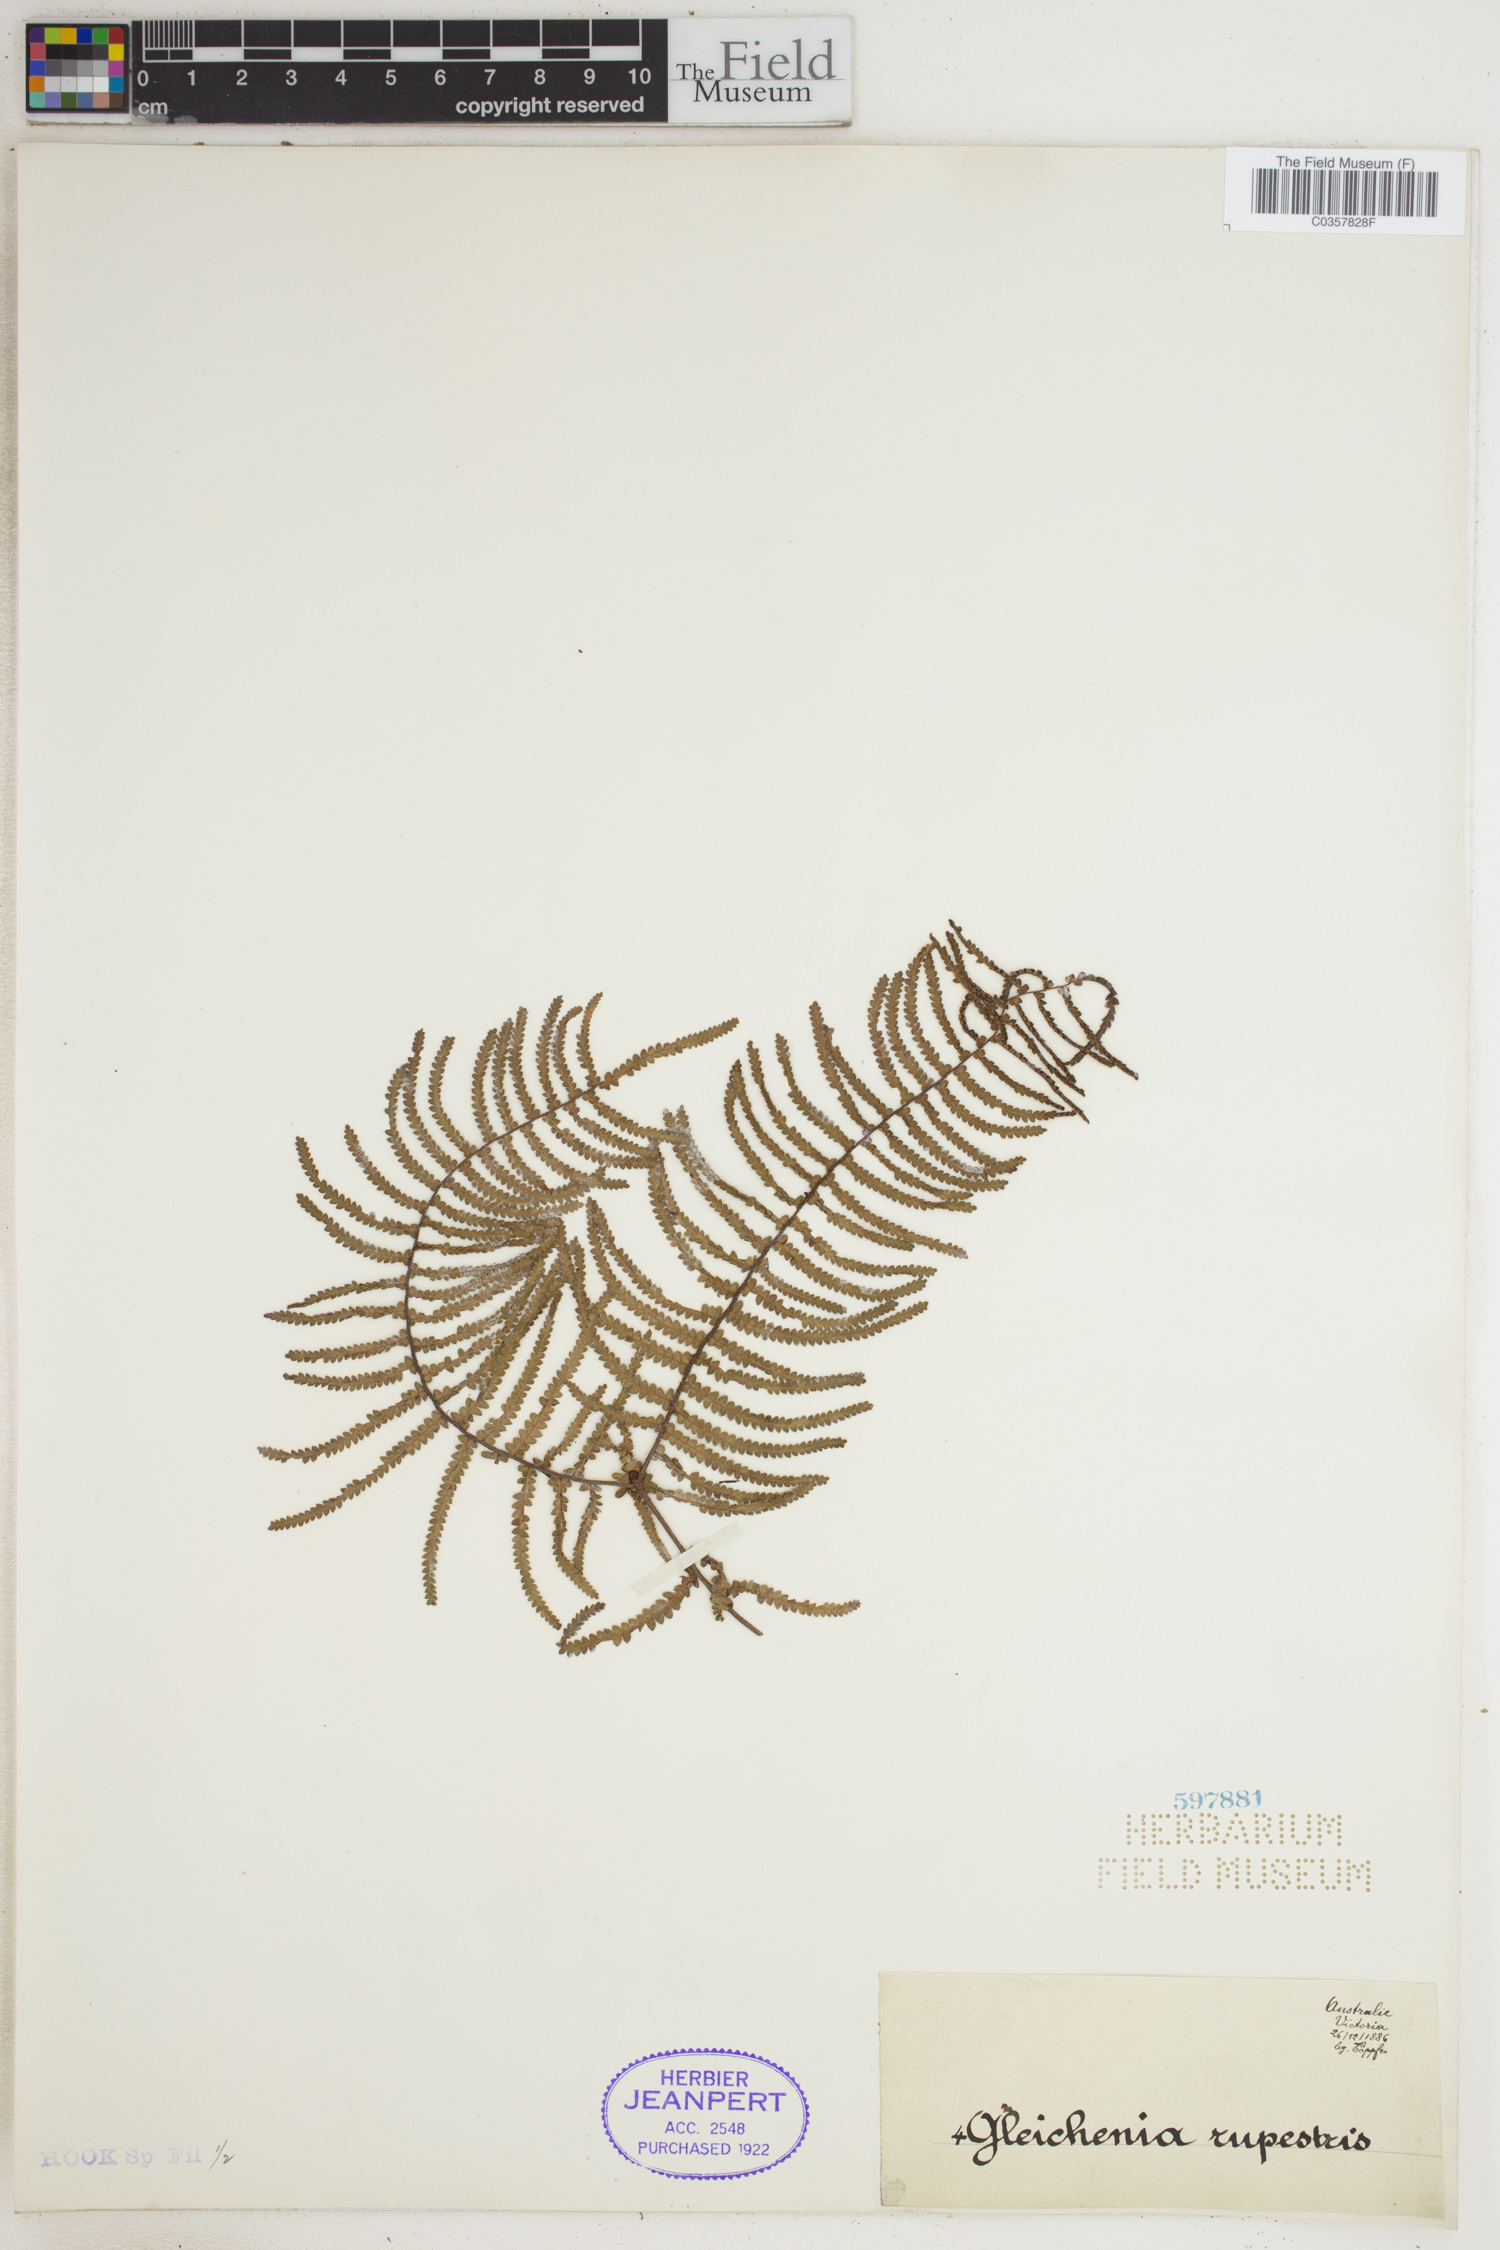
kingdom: Plantae
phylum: Tracheophyta
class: Polypodiopsida
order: Gleicheniales
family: Gleicheniaceae
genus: Gleichenia
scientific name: Gleichenia rupestris
